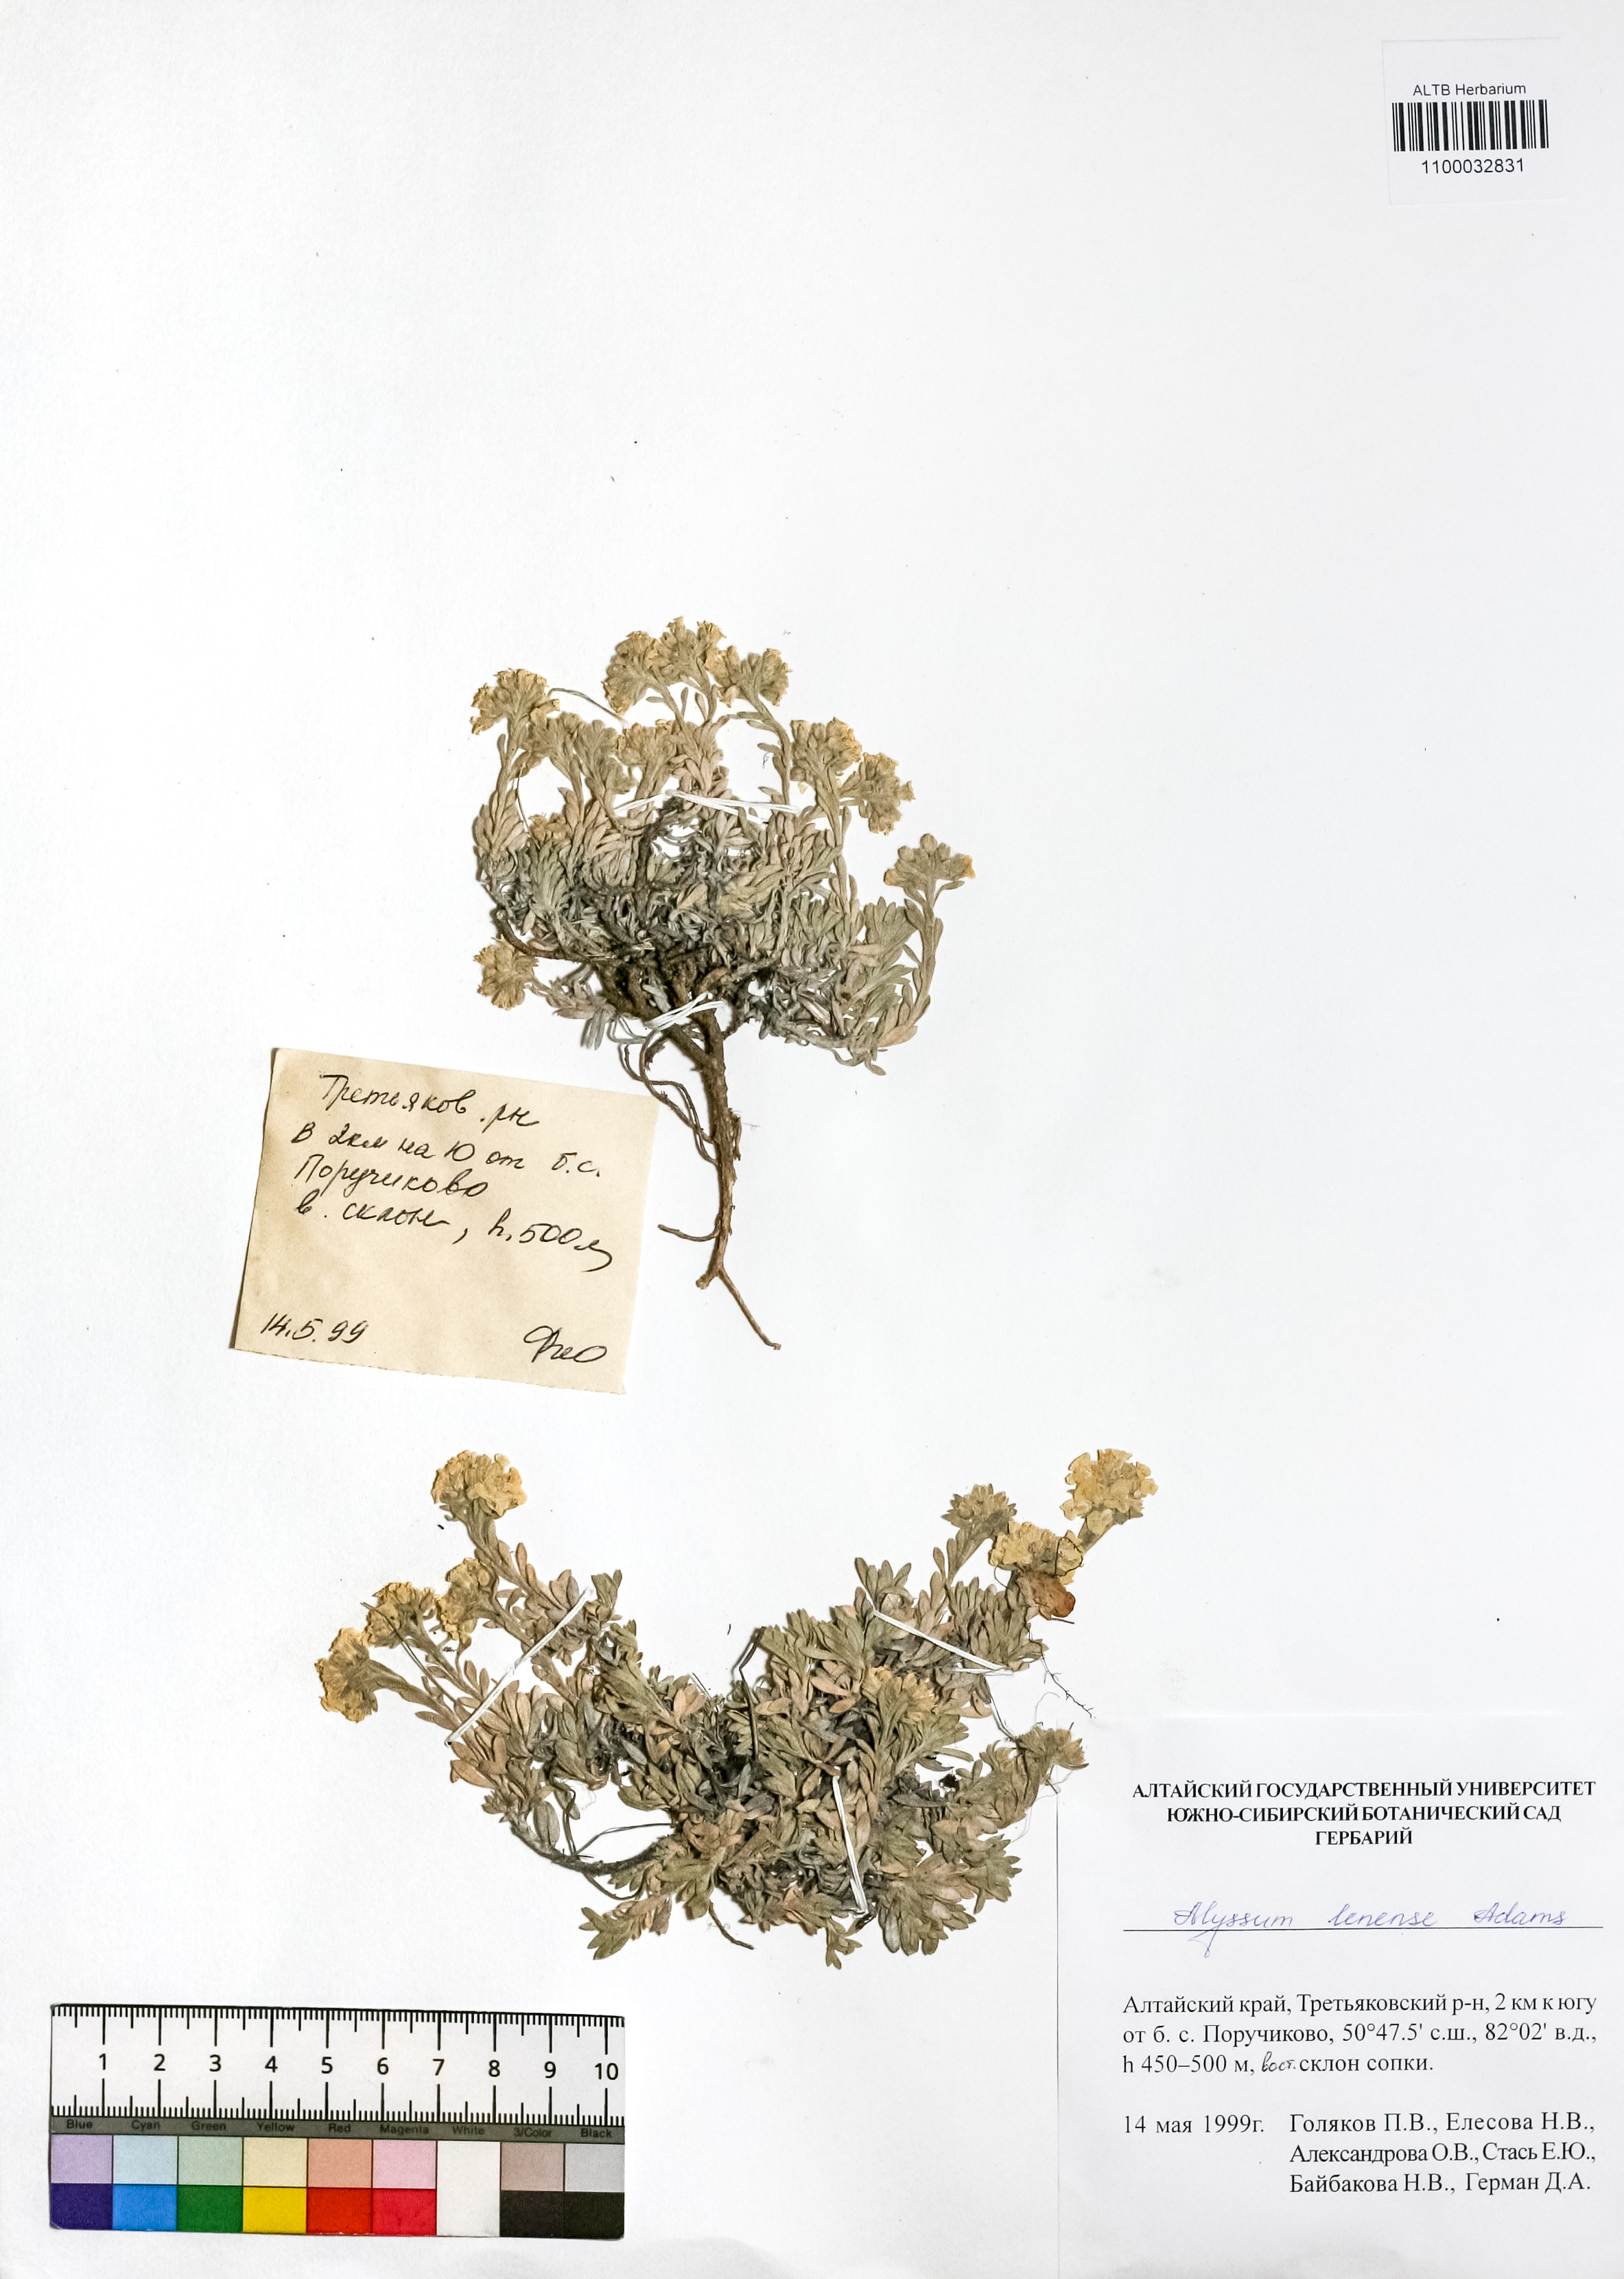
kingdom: Plantae
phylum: Tracheophyta
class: Magnoliopsida
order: Brassicales
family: Brassicaceae
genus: Alyssum
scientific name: Alyssum lenense
